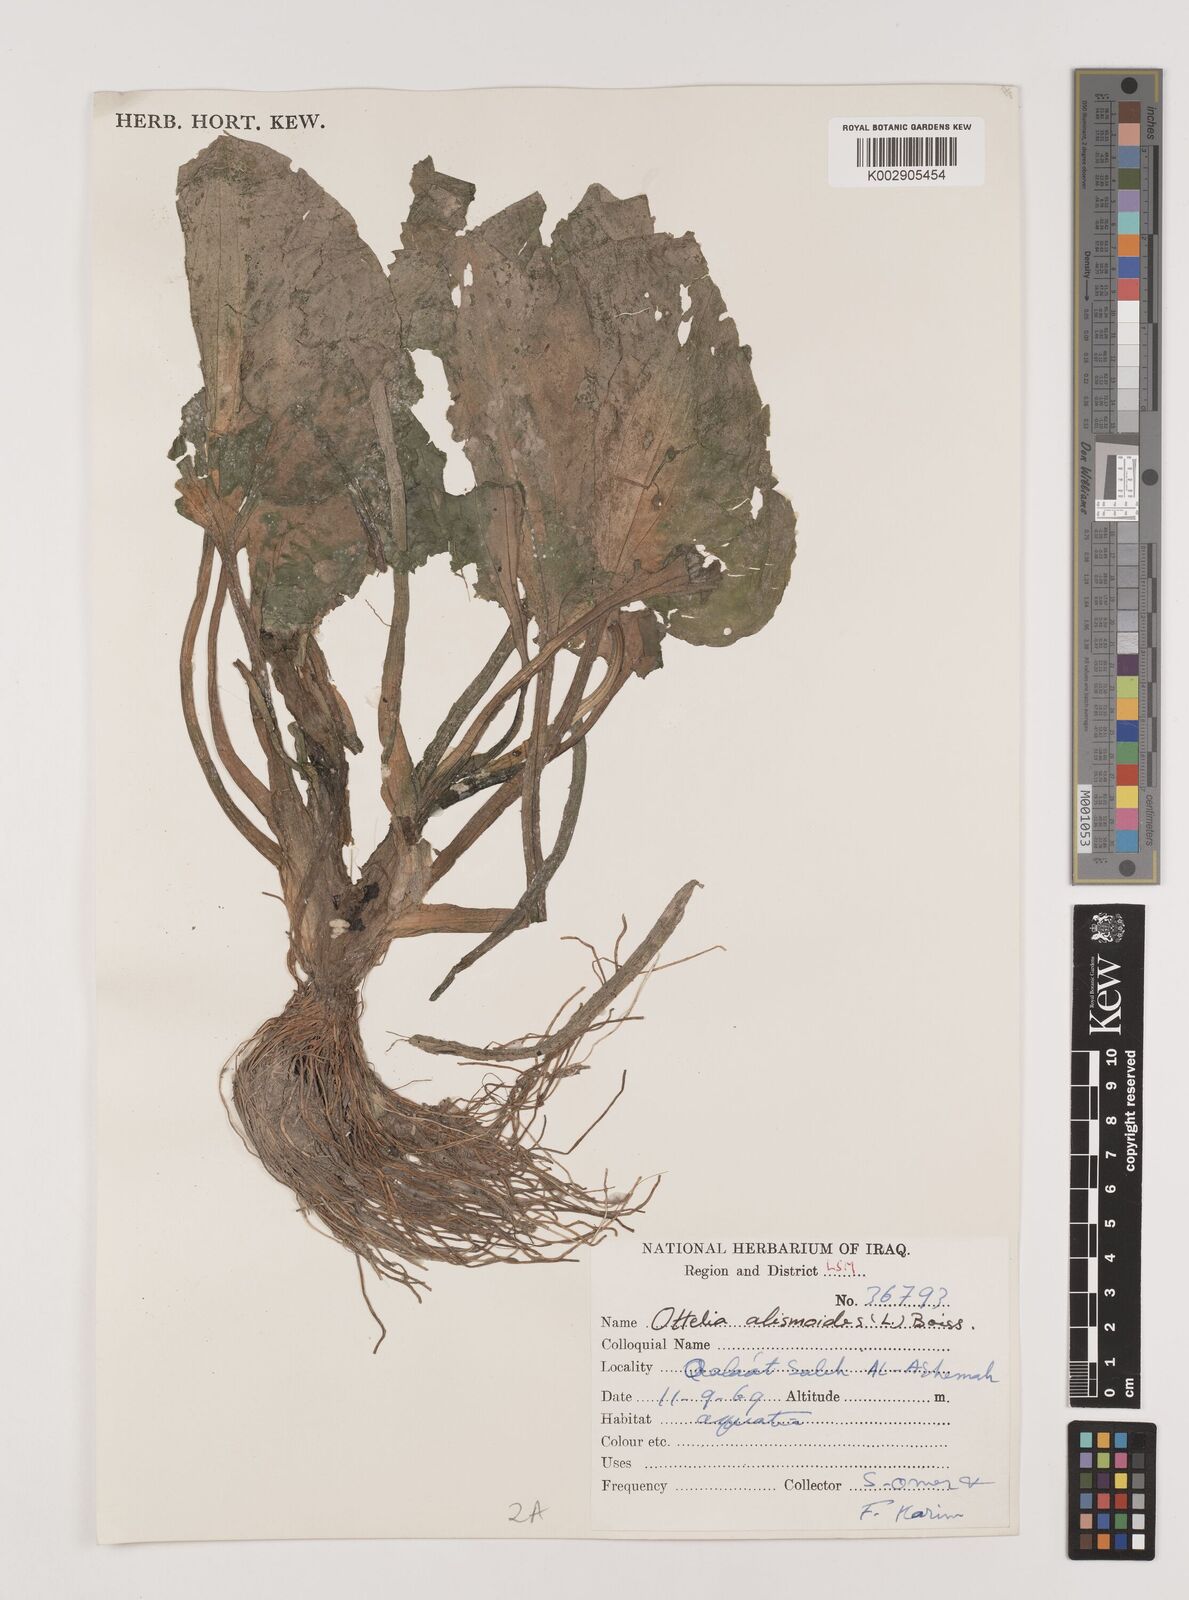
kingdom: Plantae
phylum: Tracheophyta
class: Liliopsida
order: Alismatales
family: Hydrocharitaceae
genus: Ottelia
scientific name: Ottelia alismoides
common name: Duck-lettuce
